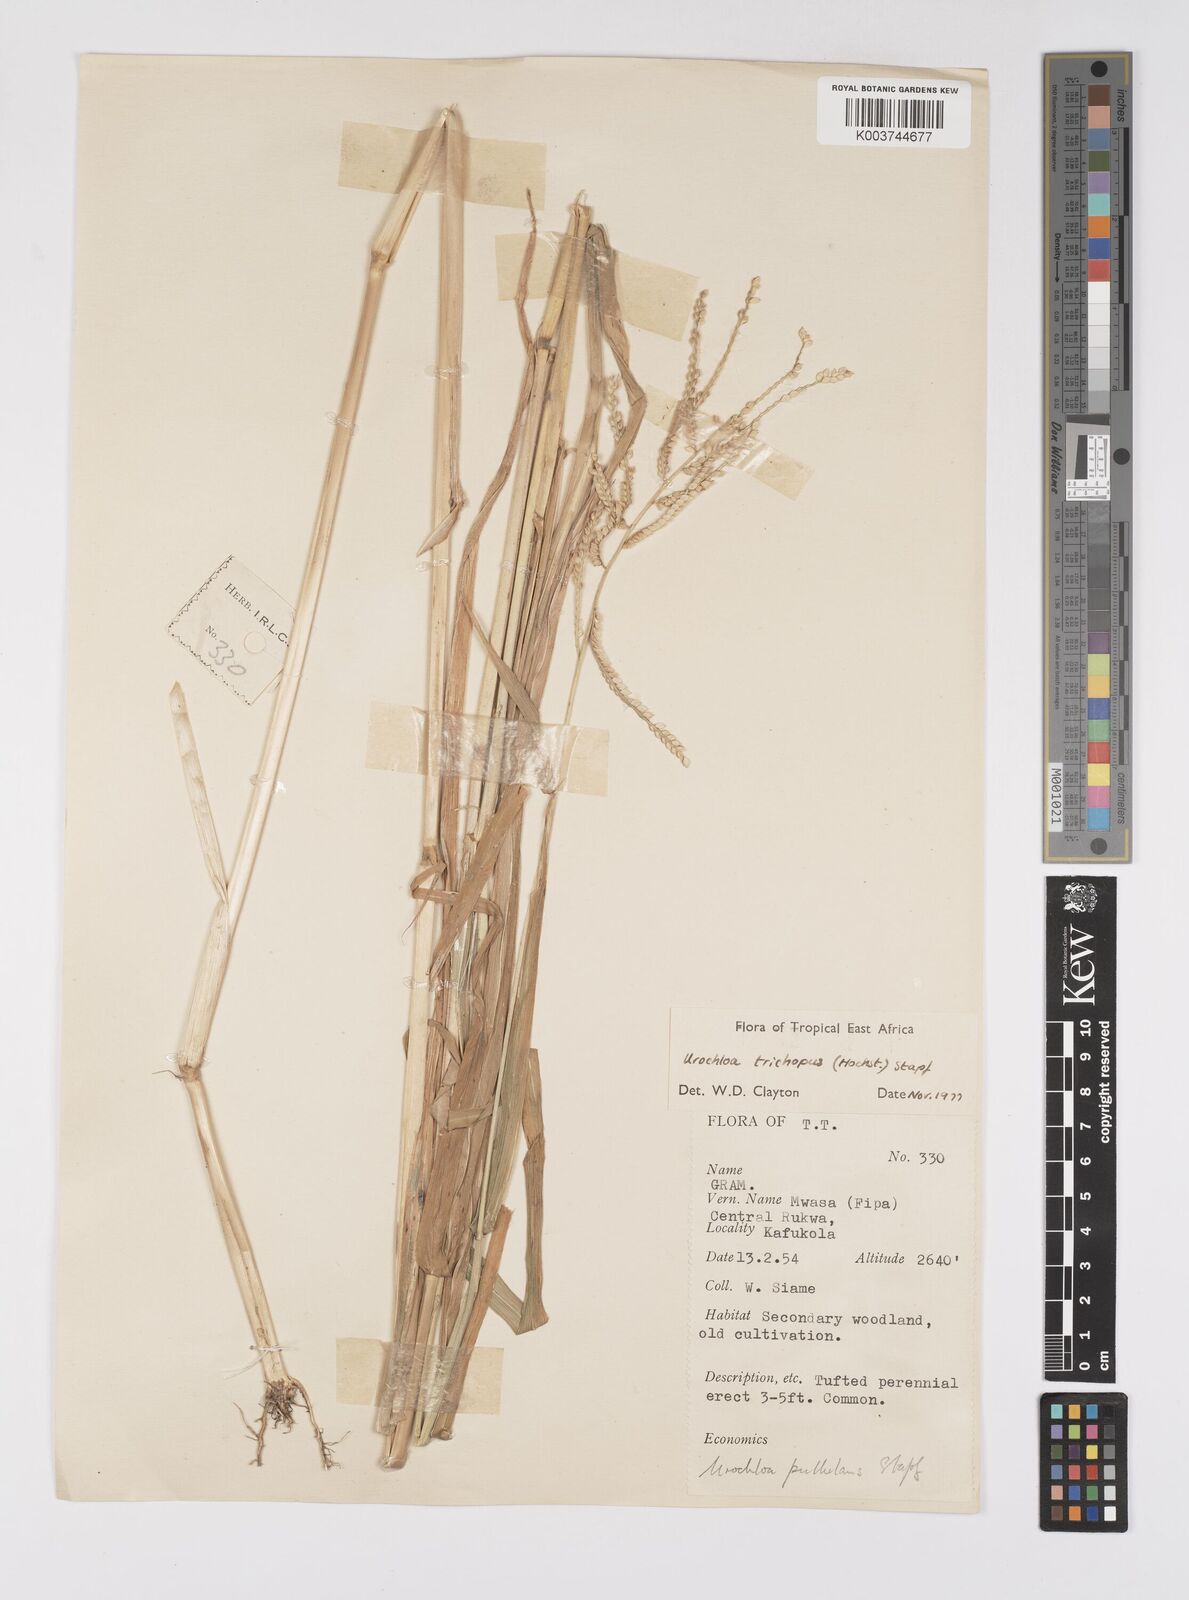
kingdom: Plantae
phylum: Tracheophyta
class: Liliopsida
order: Poales
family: Poaceae
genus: Urochloa
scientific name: Urochloa trichopus
